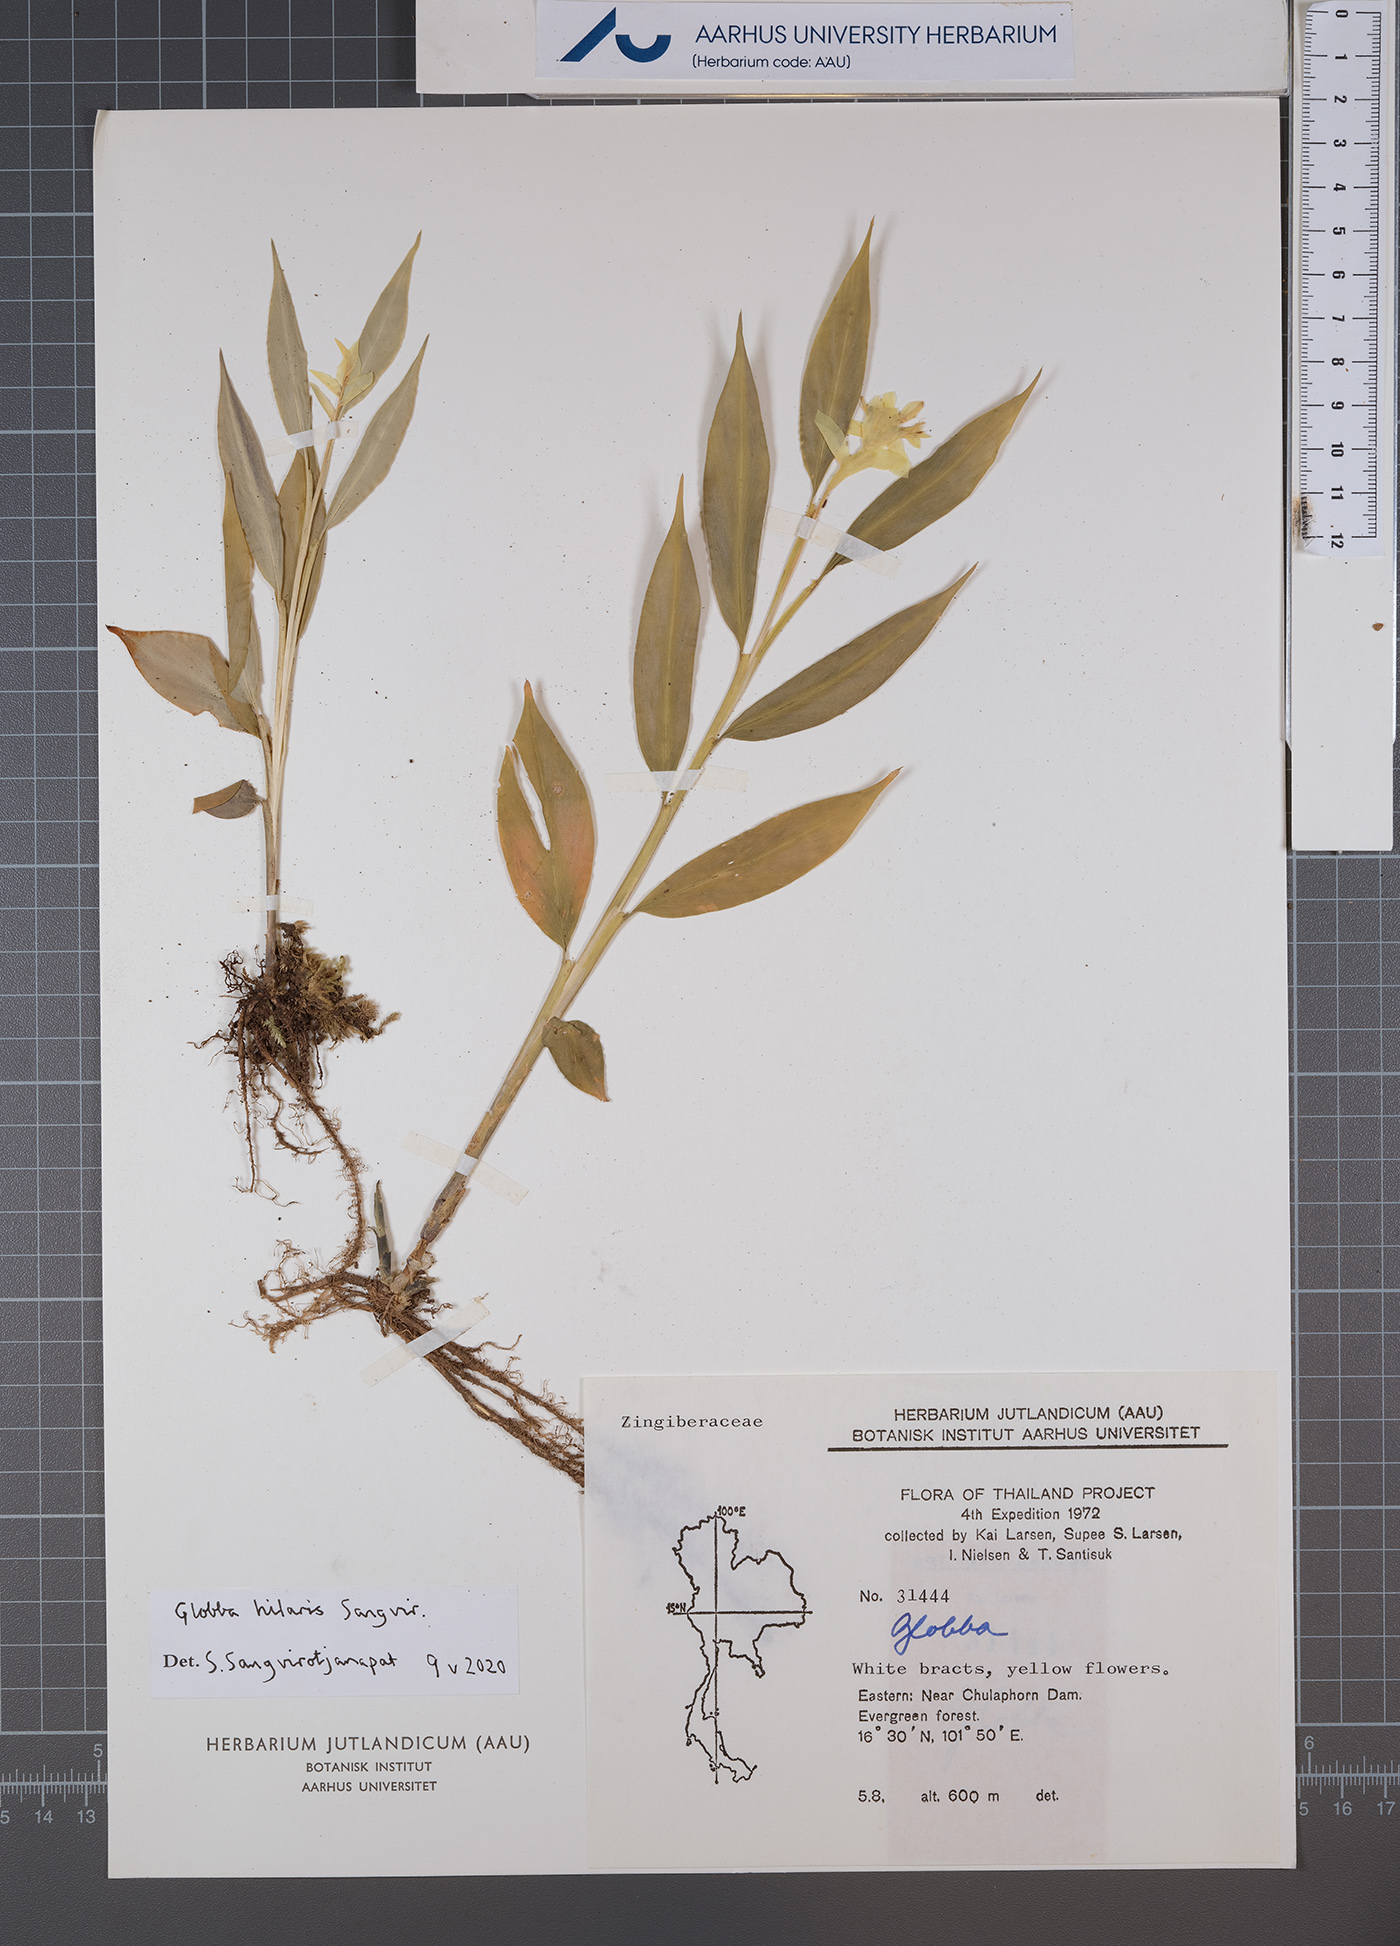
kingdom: Plantae
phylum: Tracheophyta
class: Liliopsida
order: Zingiberales
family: Zingiberaceae
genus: Globba
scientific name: Globba hilaris
